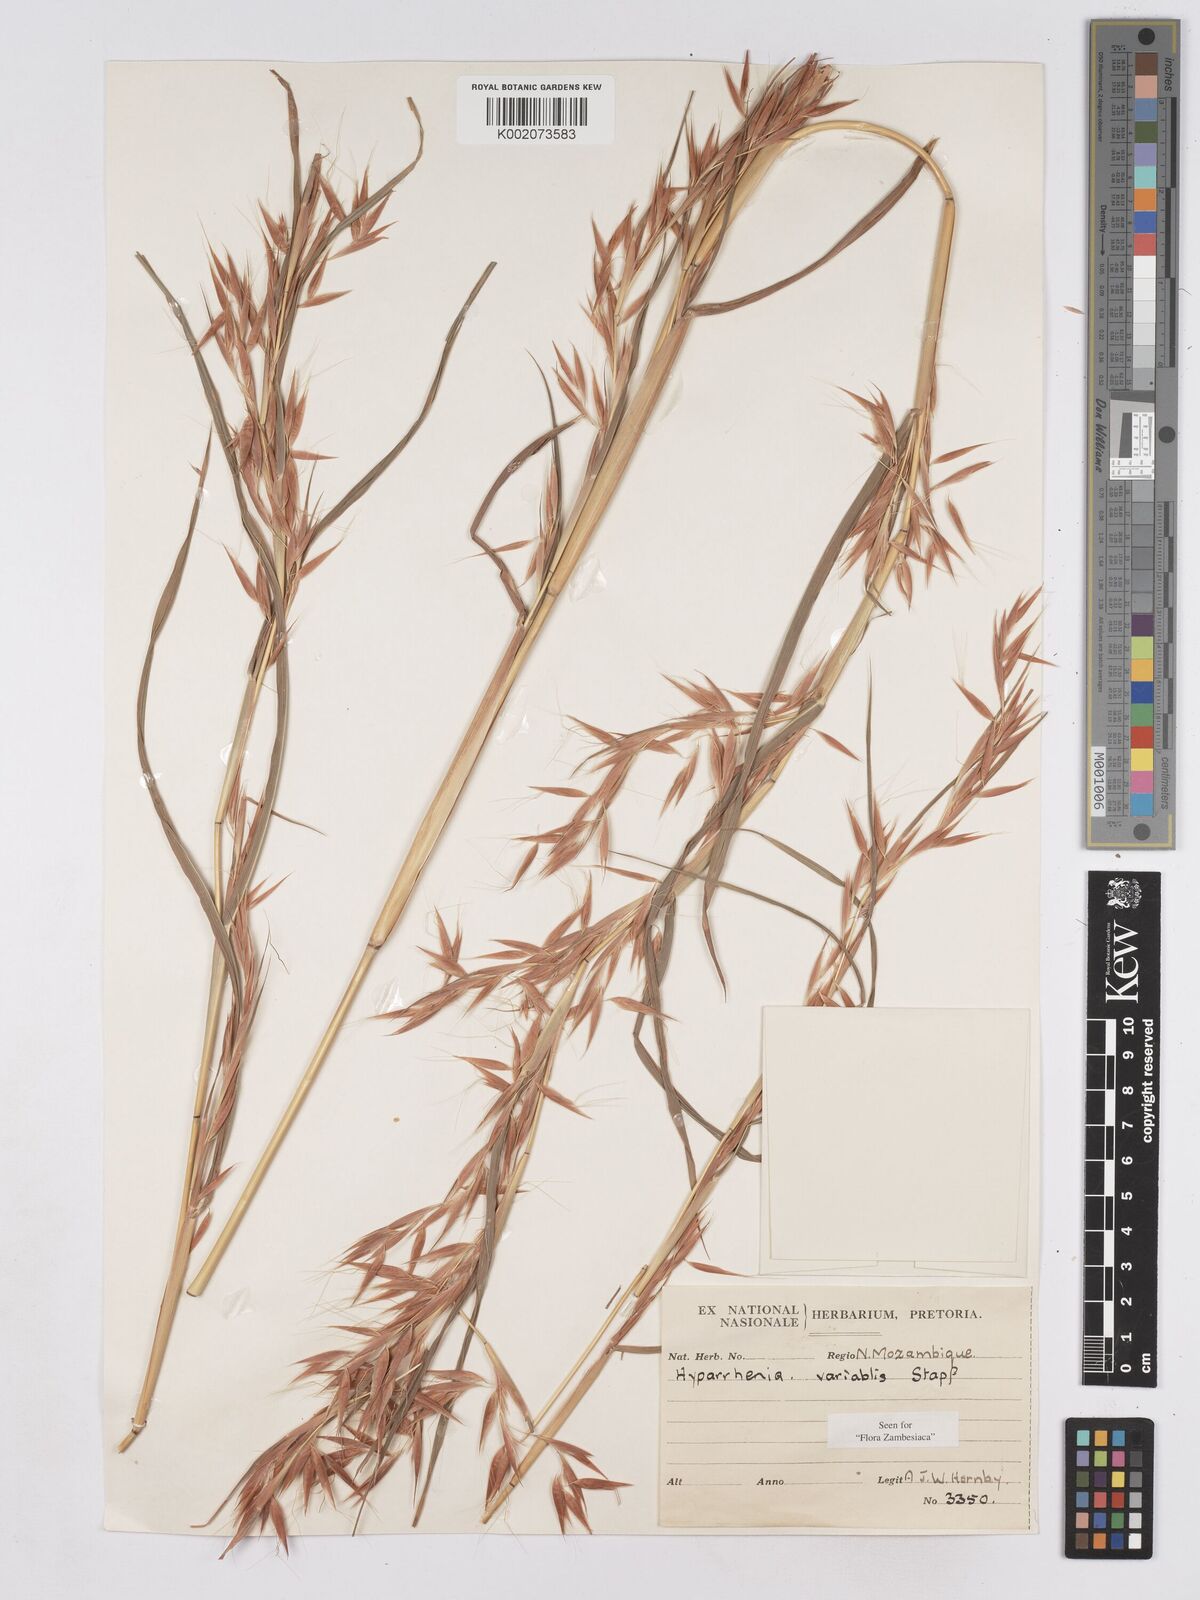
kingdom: Plantae
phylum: Tracheophyta
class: Liliopsida
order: Poales
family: Poaceae
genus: Hyparrhenia
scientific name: Hyparrhenia variabilis
